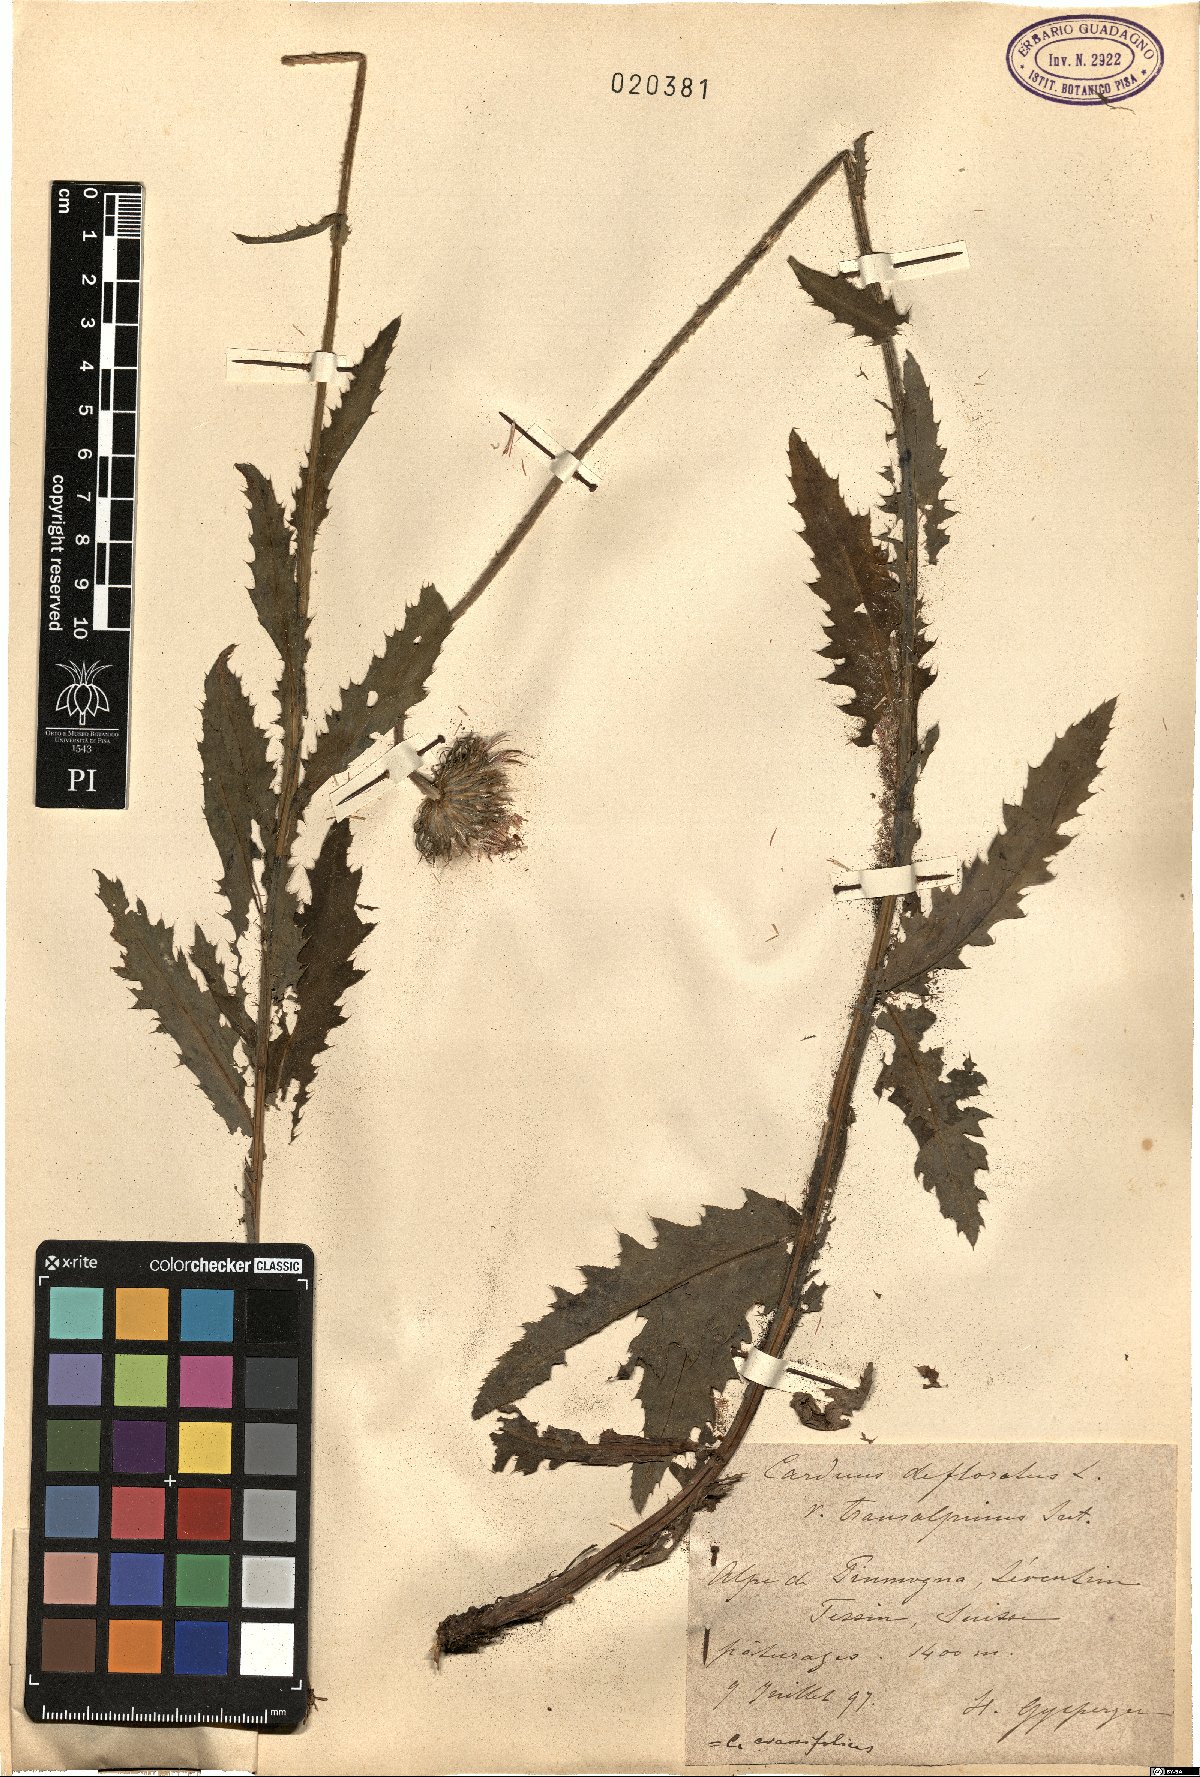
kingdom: Plantae
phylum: Tracheophyta
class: Magnoliopsida
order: Asterales
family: Asteraceae
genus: Carduus
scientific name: Carduus defloratus
